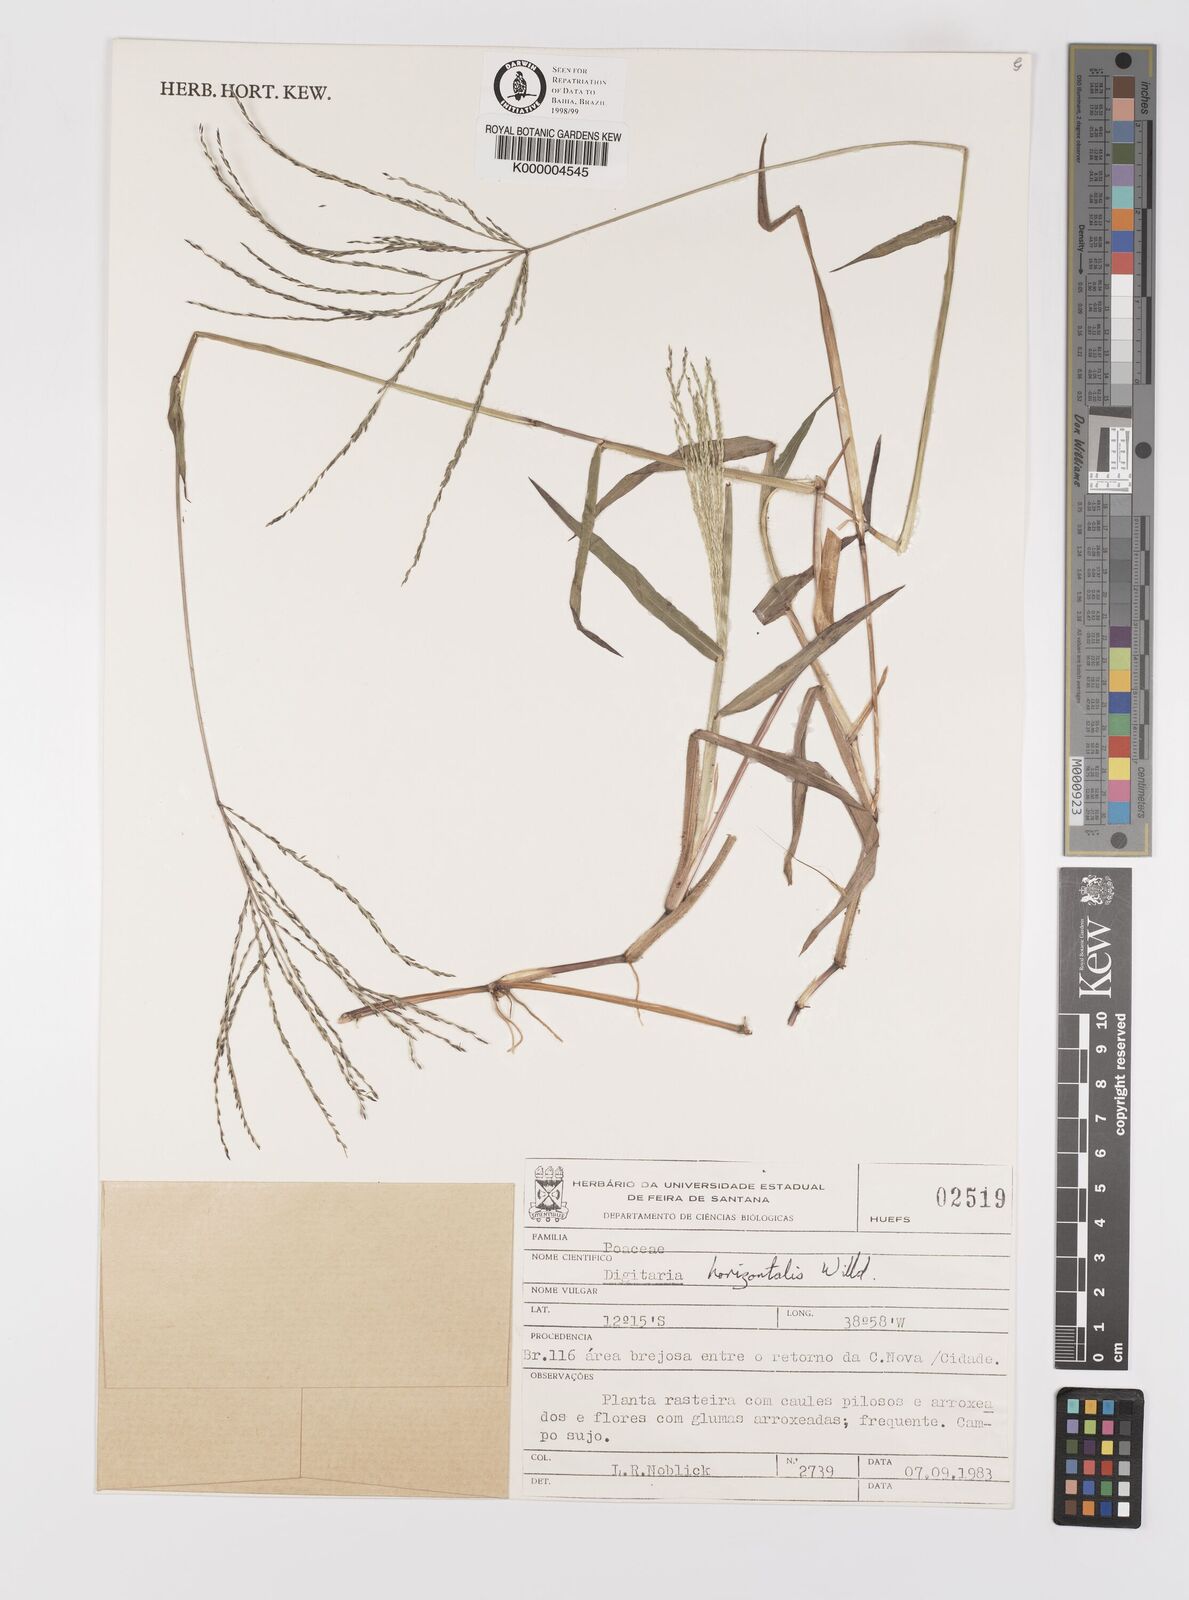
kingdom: Plantae
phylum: Tracheophyta
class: Liliopsida
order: Poales
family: Poaceae
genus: Digitaria
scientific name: Digitaria horizontalis
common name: Jamaican crabgrass
